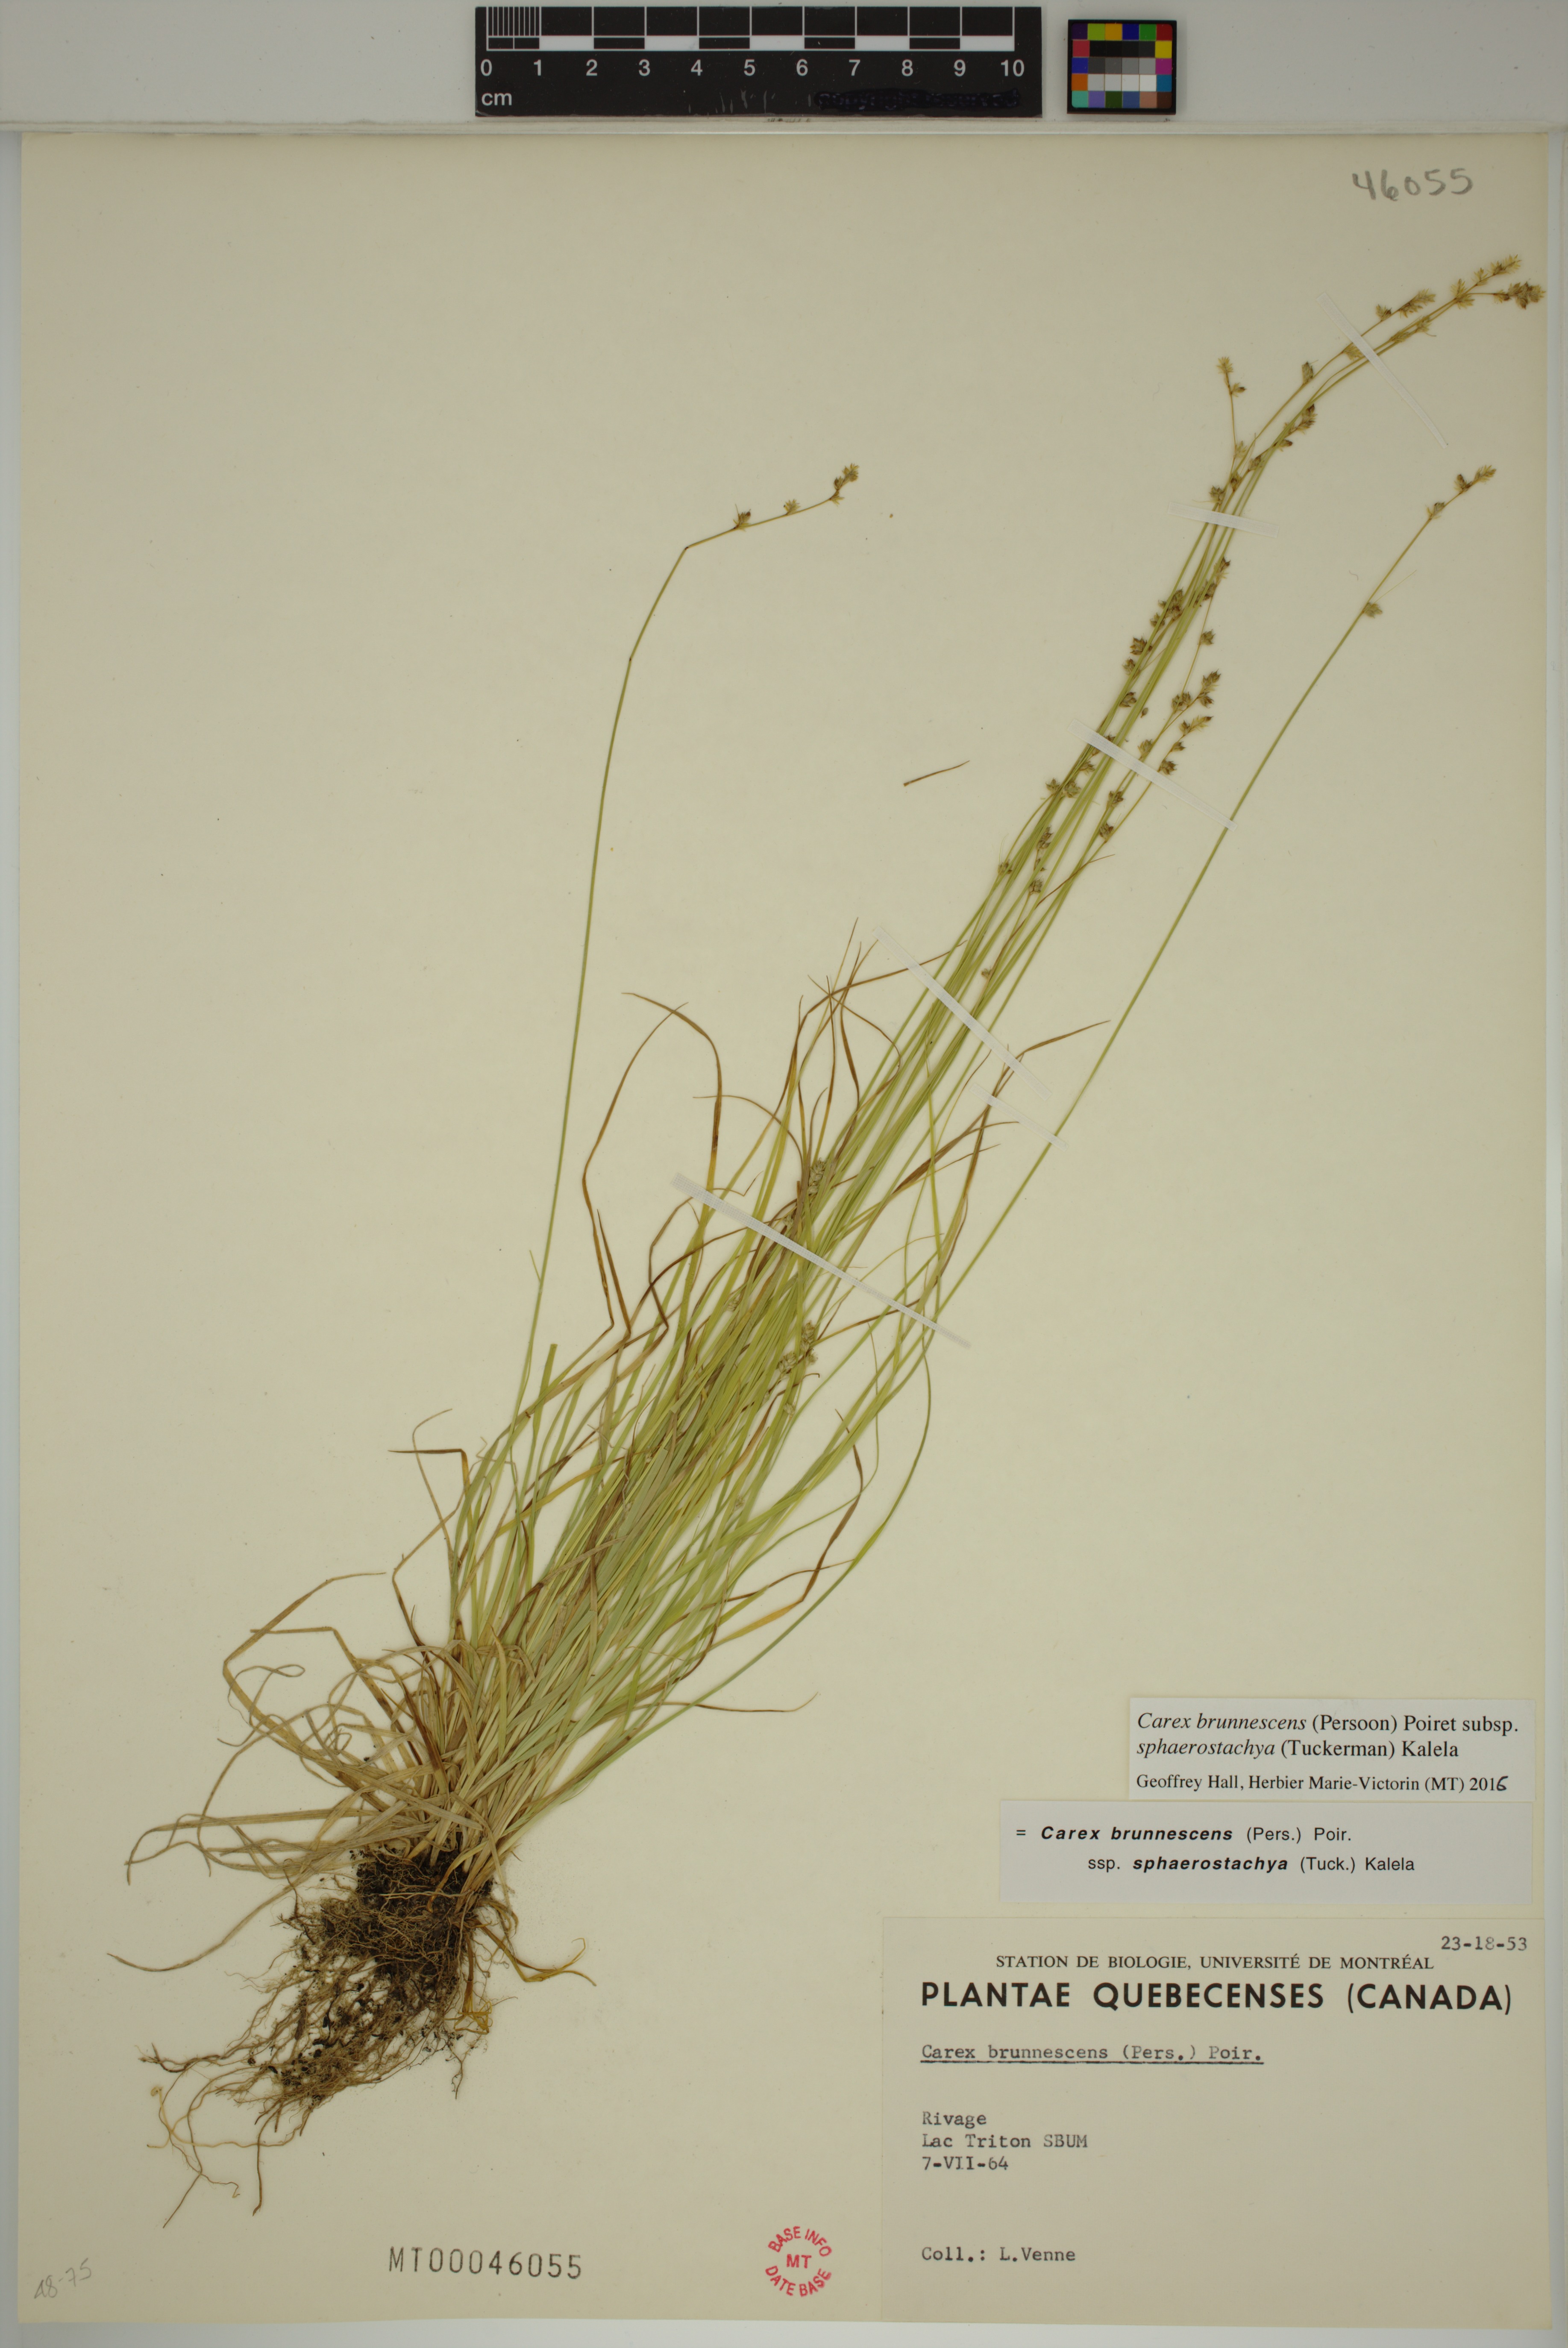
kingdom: Plantae
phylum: Tracheophyta
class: Liliopsida
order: Poales
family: Cyperaceae
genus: Carex
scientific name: Carex brunnescens
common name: Brown sedge
